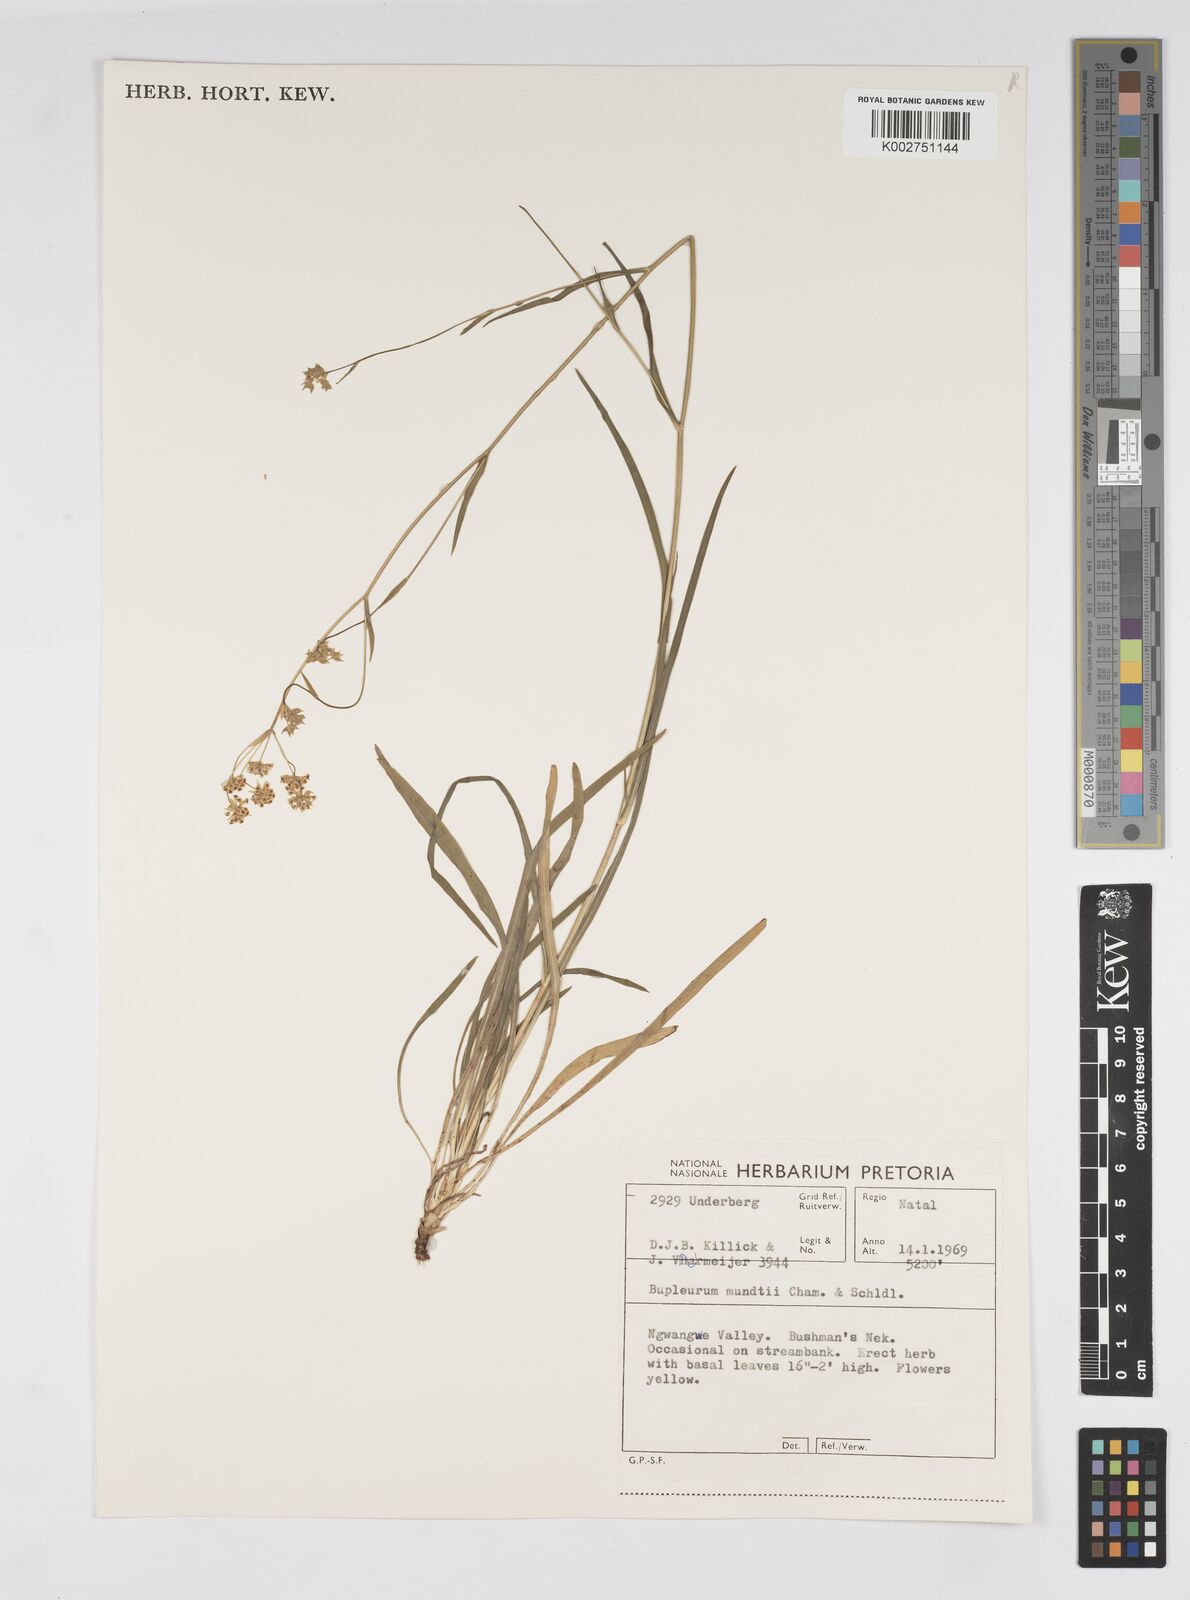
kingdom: Plantae
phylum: Tracheophyta
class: Magnoliopsida
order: Apiales
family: Apiaceae
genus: Bupleurum
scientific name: Bupleurum mundii
